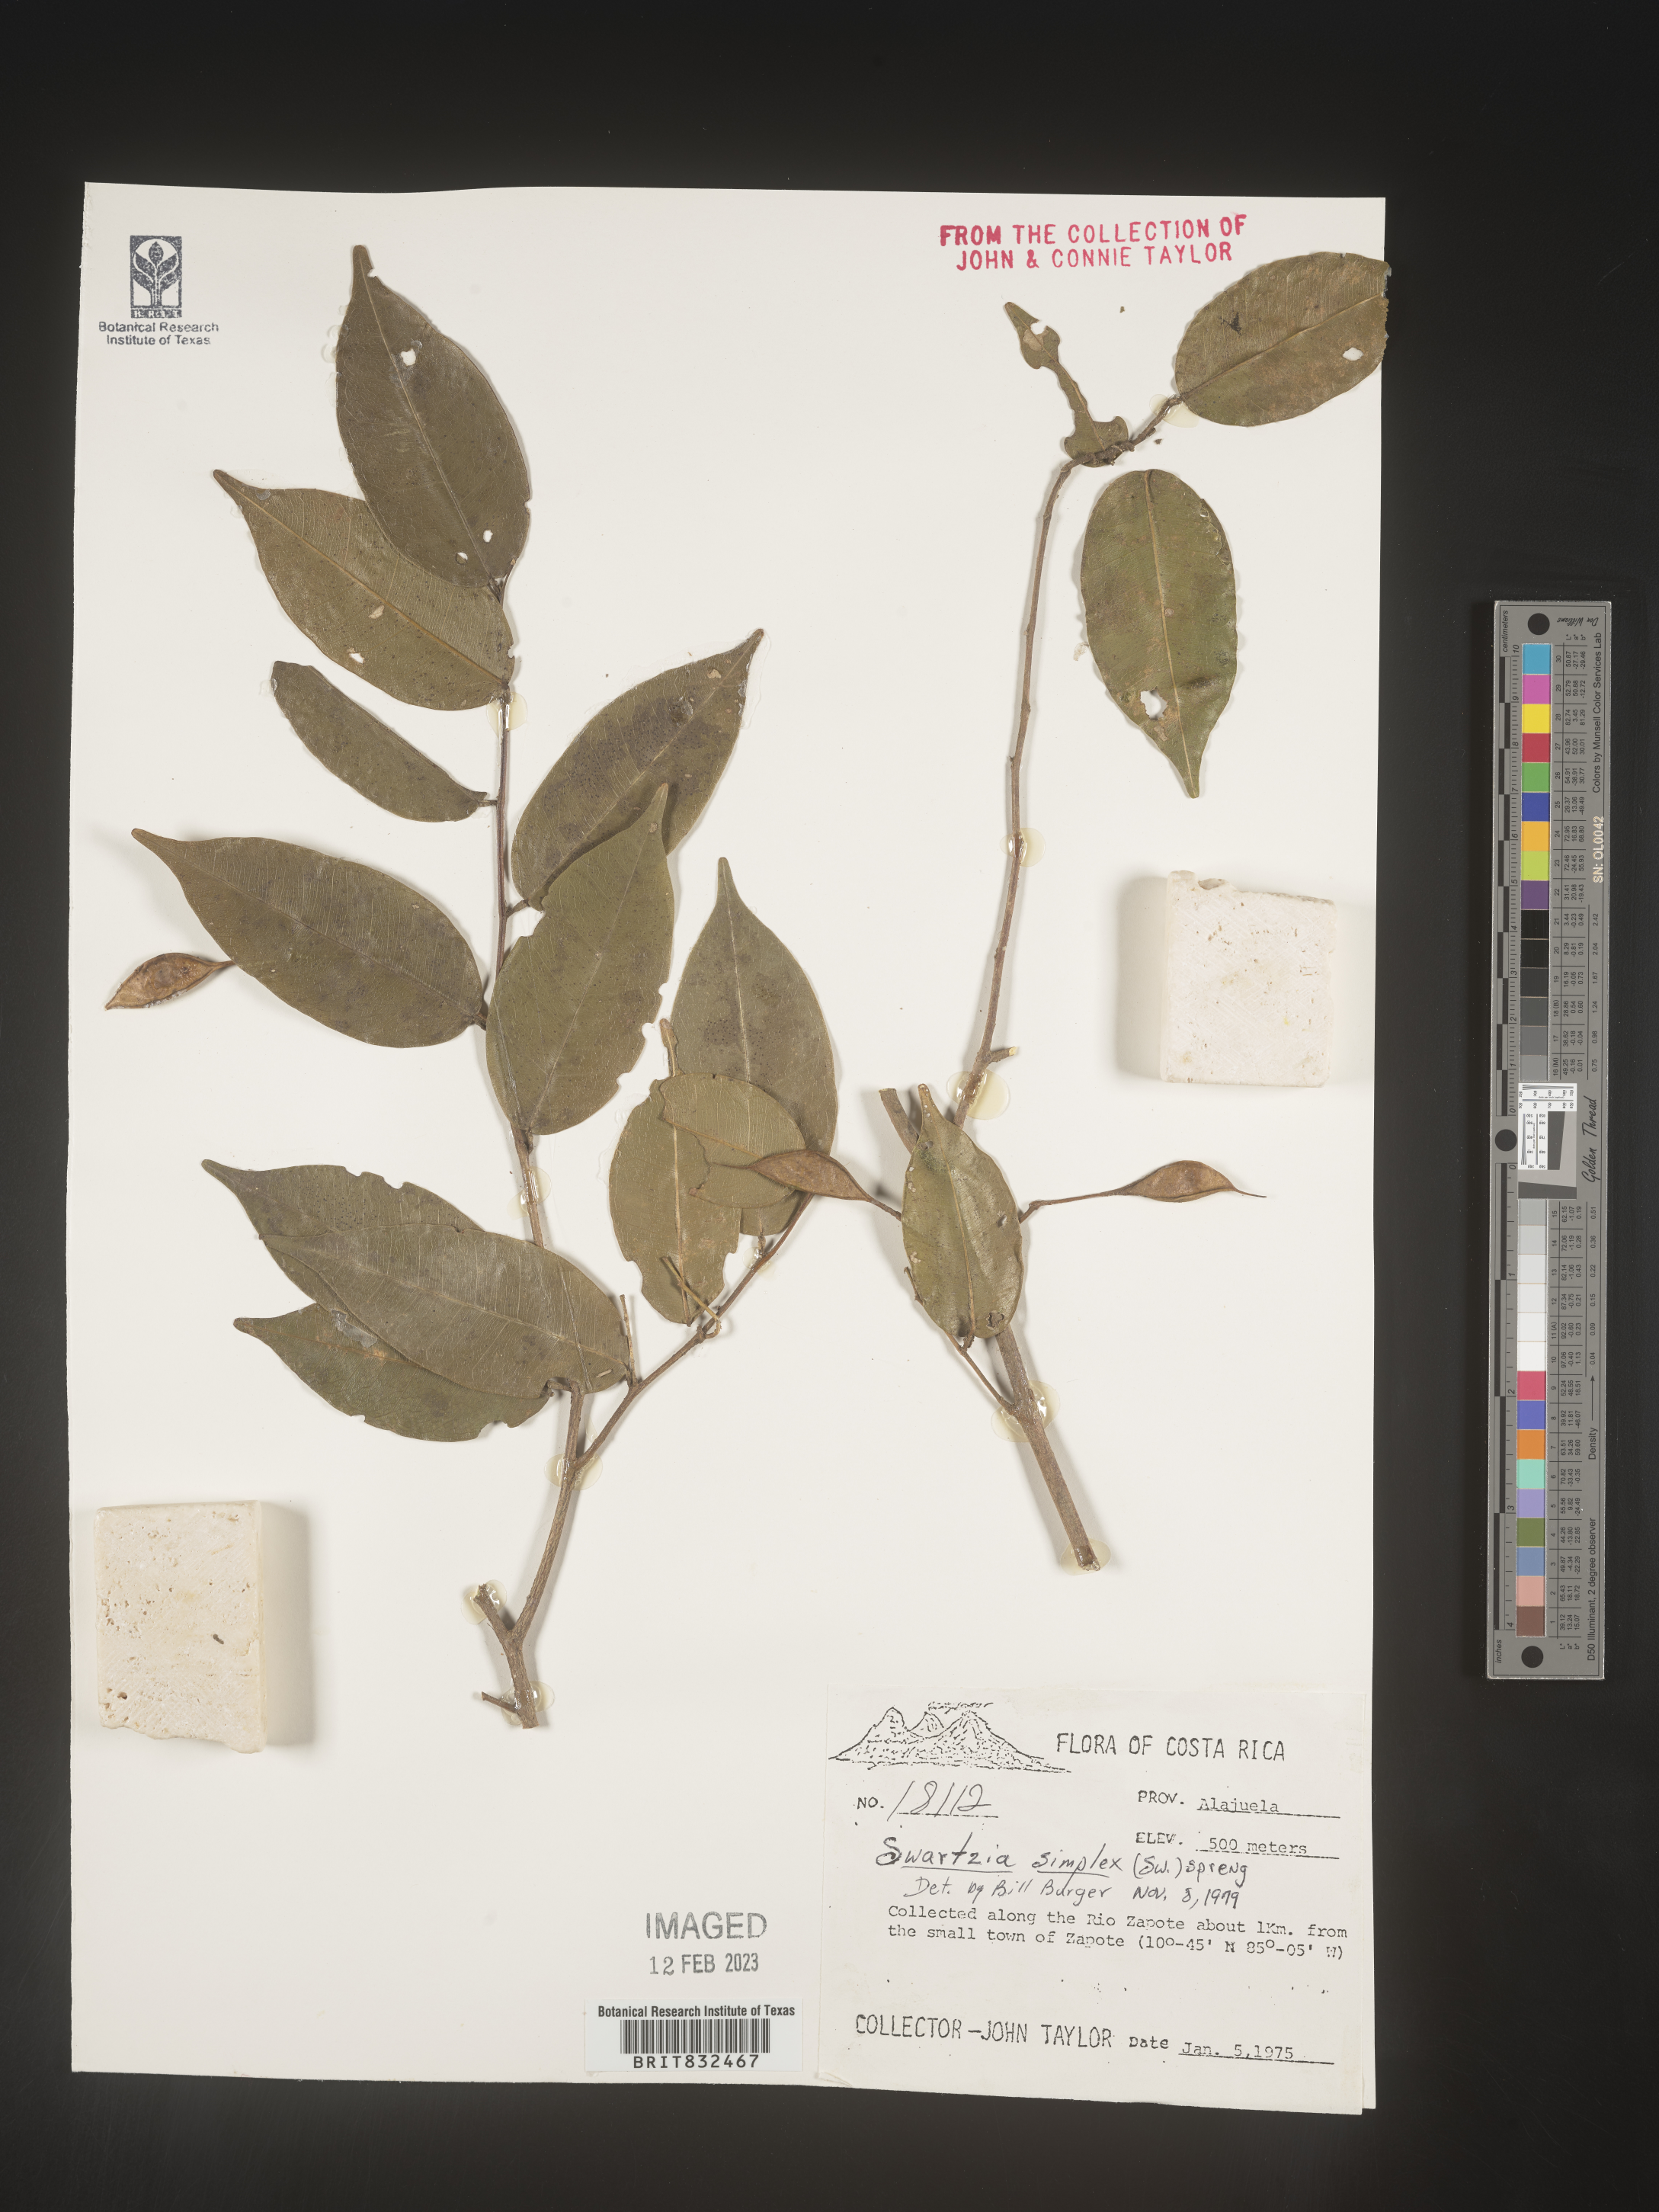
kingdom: Plantae
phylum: Tracheophyta
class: Magnoliopsida
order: Fabales
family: Fabaceae
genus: Swartzia
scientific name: Swartzia
